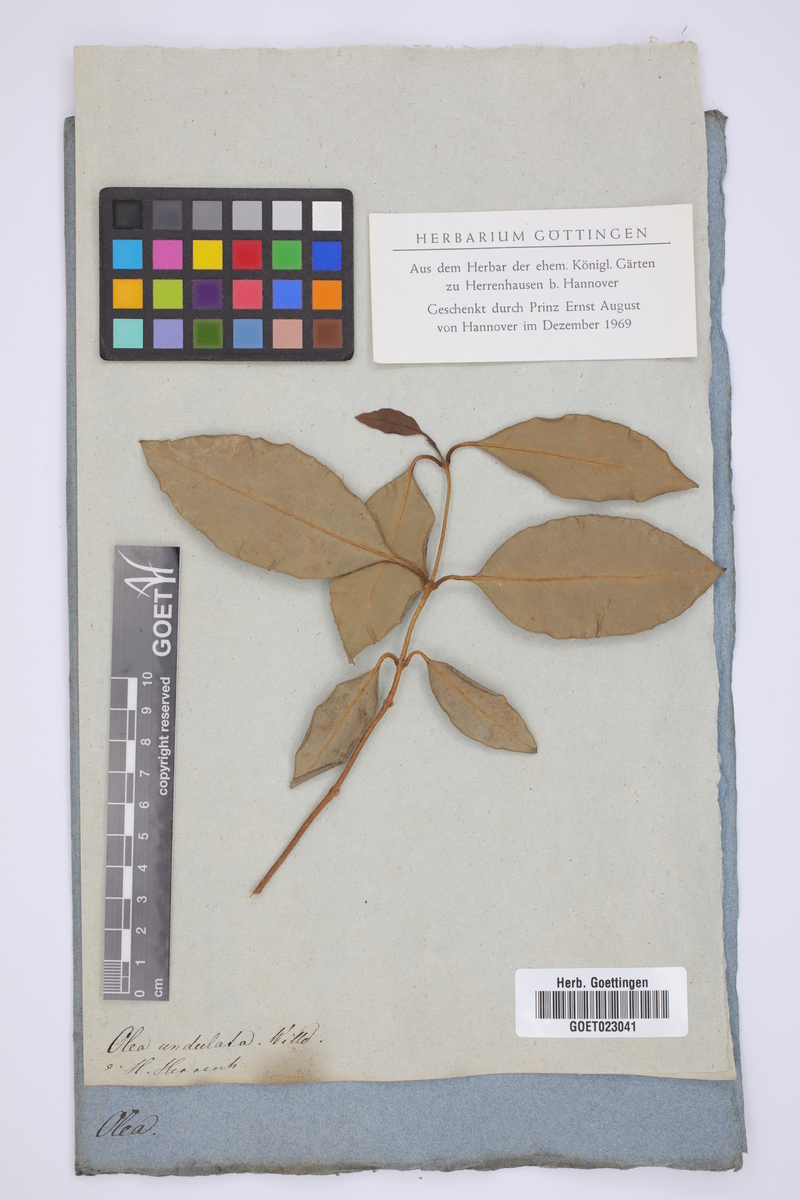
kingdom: Plantae
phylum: Tracheophyta
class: Magnoliopsida
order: Lamiales
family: Oleaceae
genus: Olea
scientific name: Olea capensis
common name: Black ironwood
